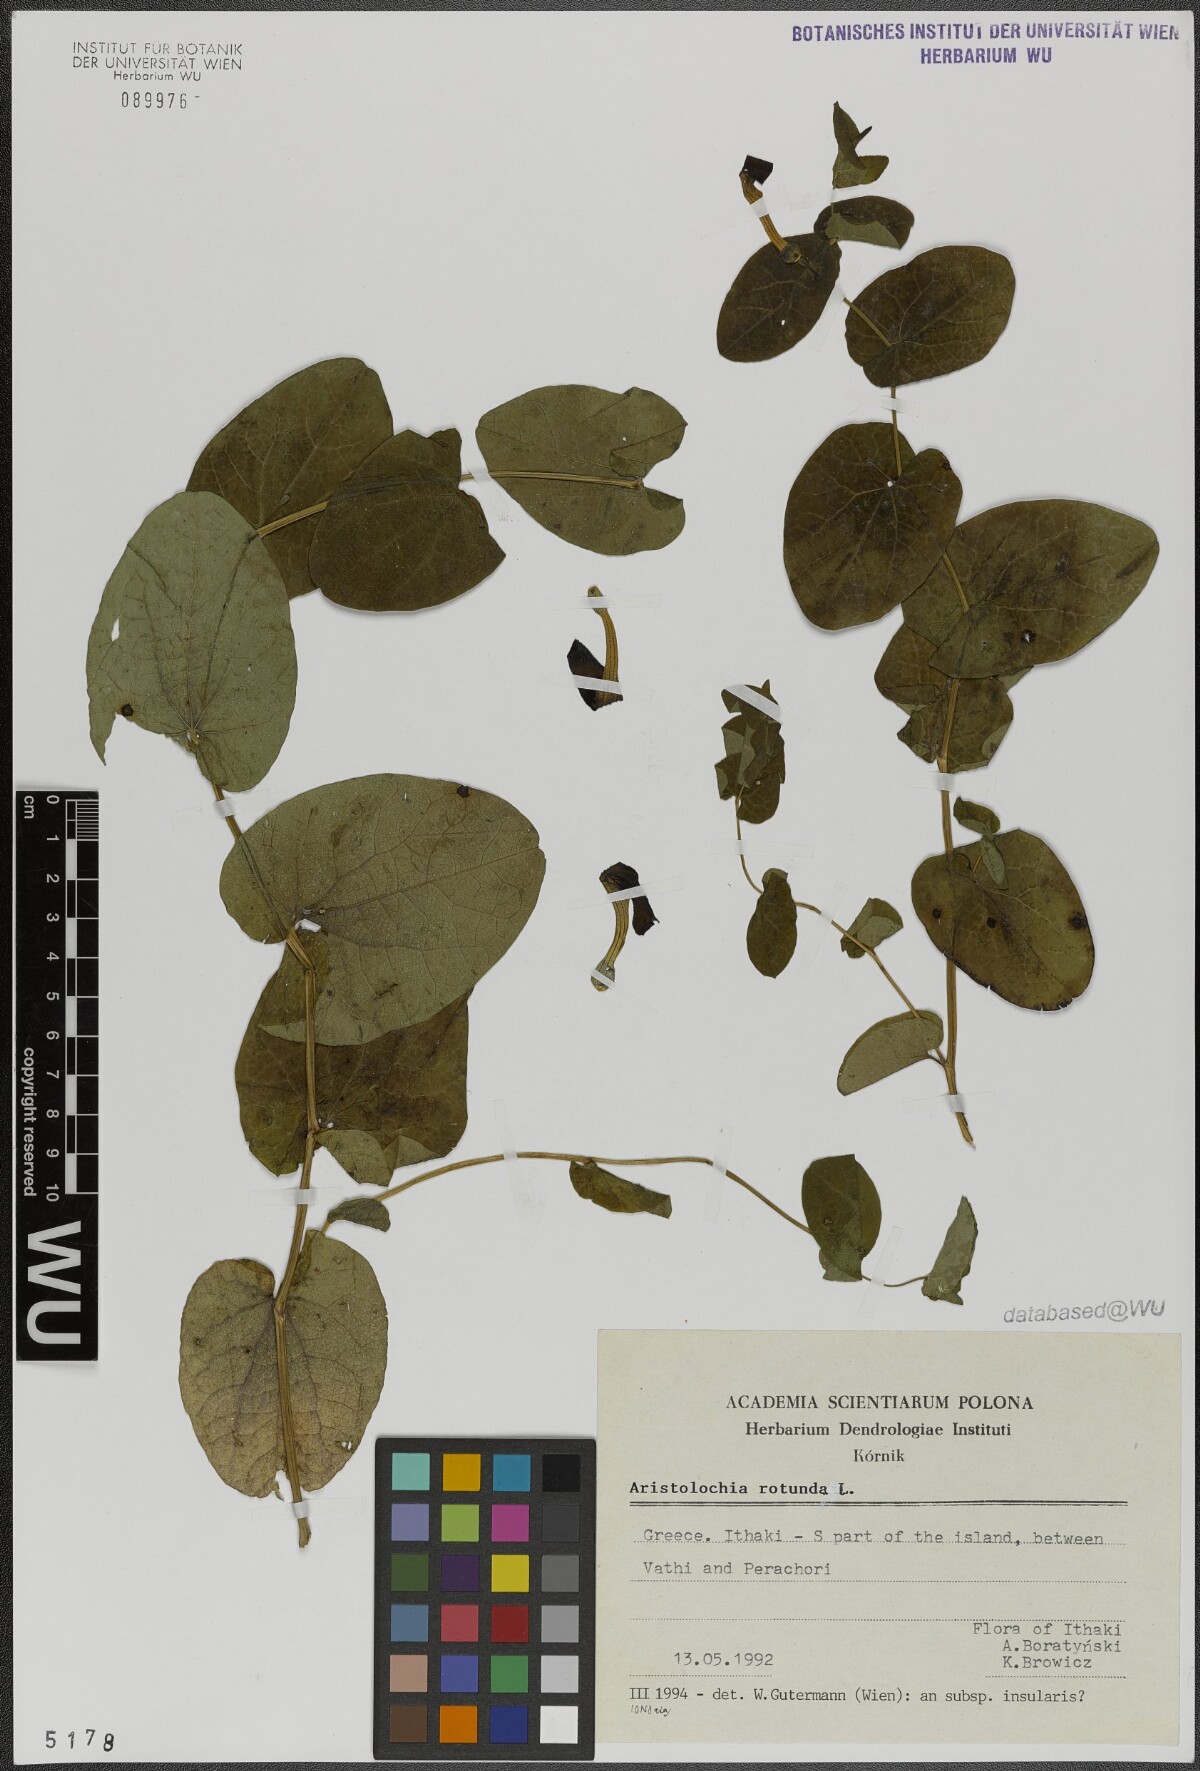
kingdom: Plantae
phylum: Tracheophyta
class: Magnoliopsida
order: Piperales
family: Aristolochiaceae
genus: Aristolochia
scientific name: Aristolochia rotunda
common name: Smearwort
